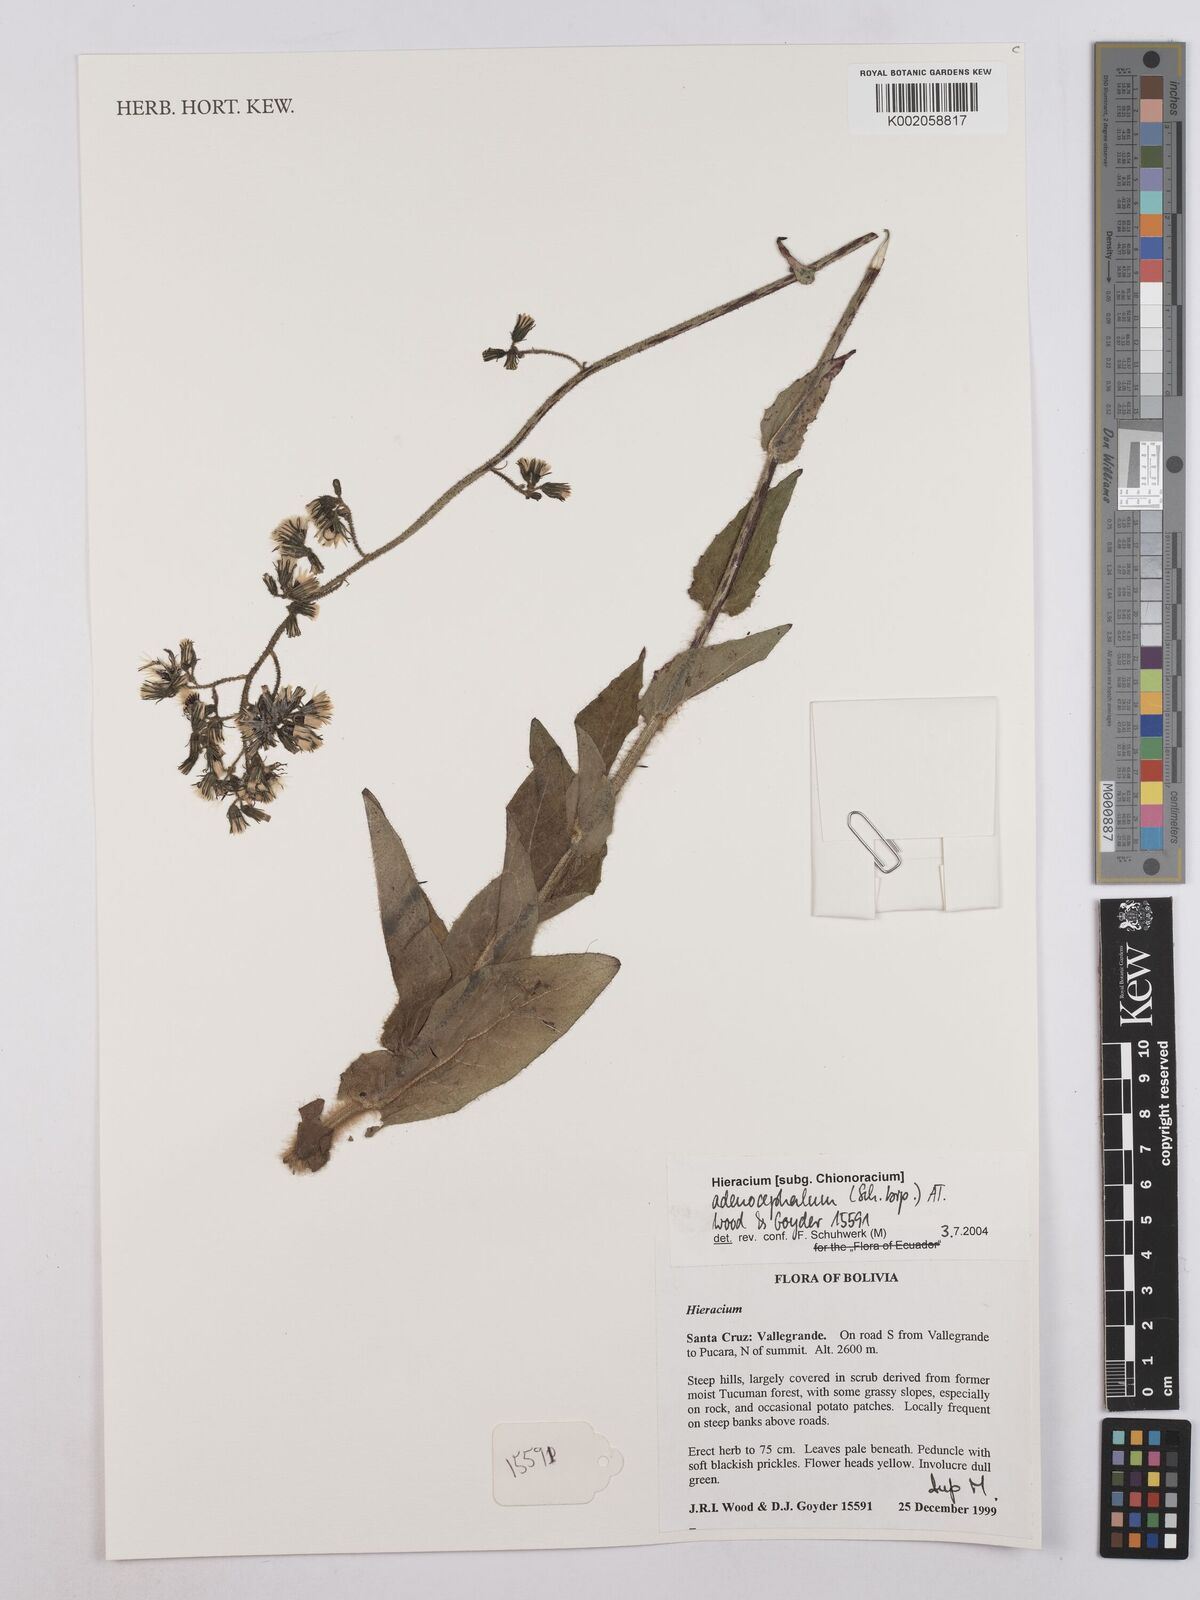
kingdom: Plantae
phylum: Tracheophyta
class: Magnoliopsida
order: Asterales
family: Asteraceae
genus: Hieracium
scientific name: Hieracium
